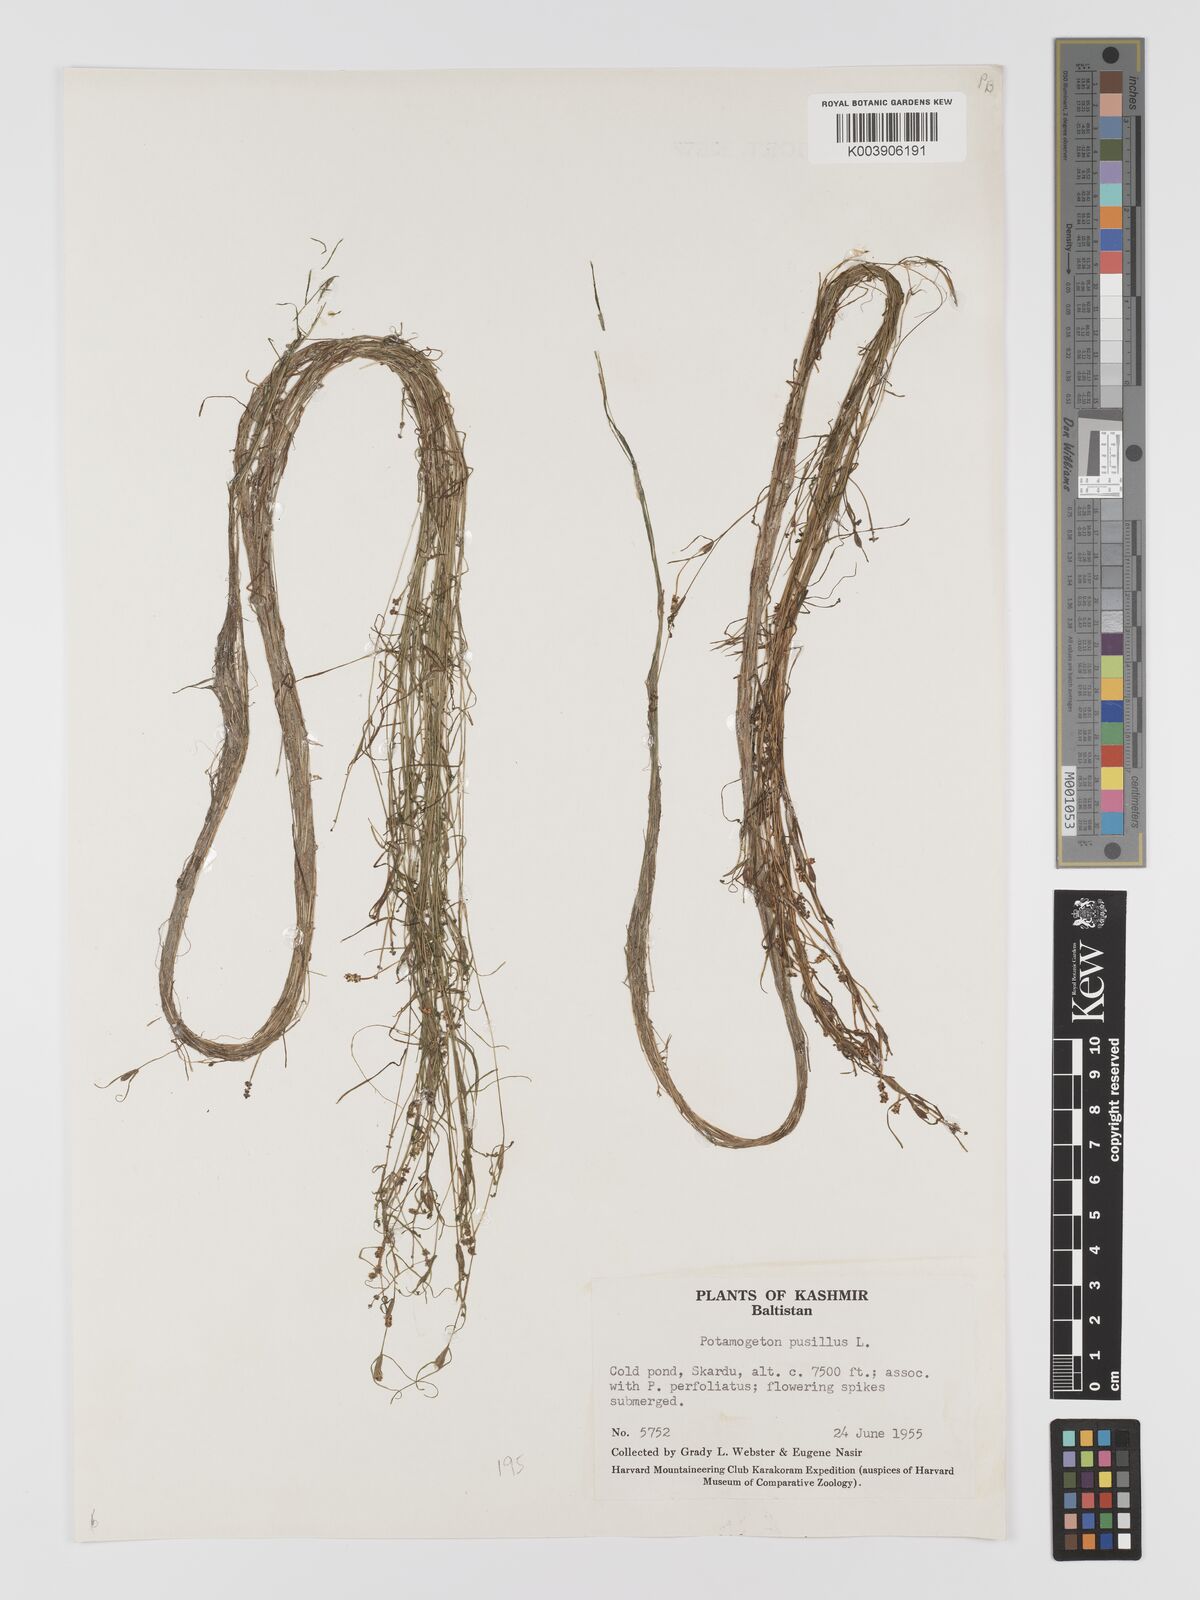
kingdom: Plantae
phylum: Tracheophyta
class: Liliopsida
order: Alismatales
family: Potamogetonaceae
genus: Potamogeton
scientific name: Potamogeton pusillus
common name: Lesser pondweed
